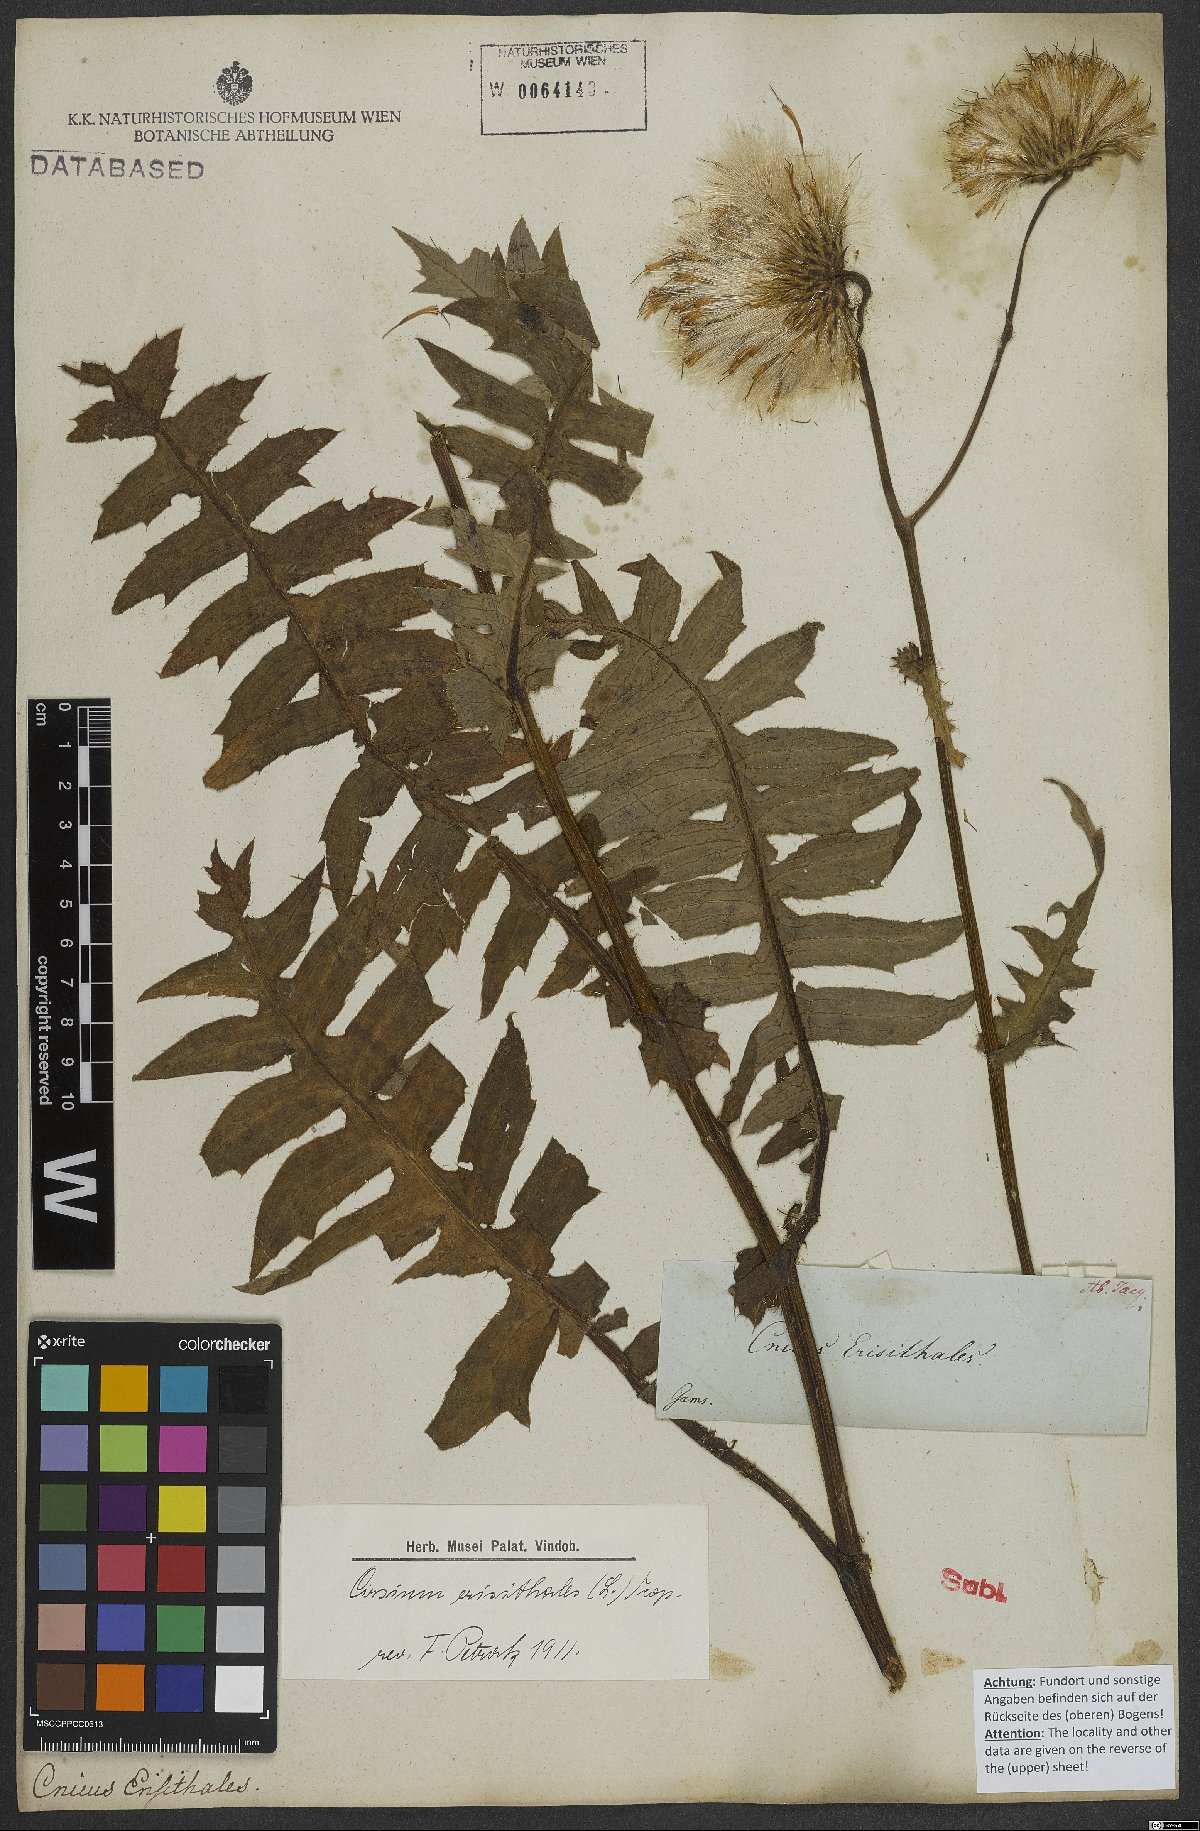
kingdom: Plantae
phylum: Tracheophyta
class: Magnoliopsida
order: Asterales
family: Asteraceae
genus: Cirsium
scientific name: Cirsium erisithales
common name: Yellow thistle
